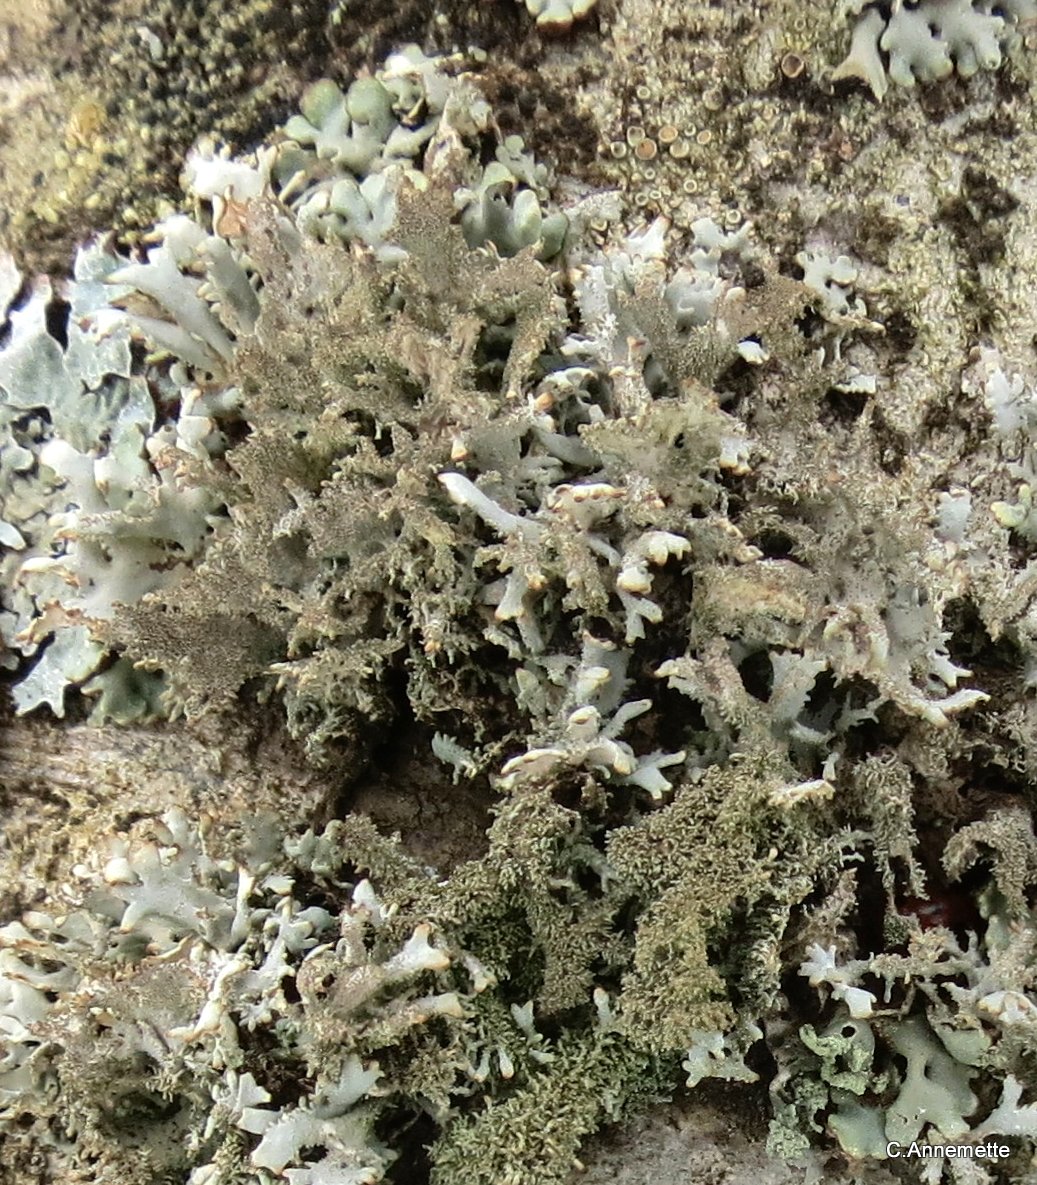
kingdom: Fungi
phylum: Ascomycota
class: Lecanoromycetes
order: Lecanorales
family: Parmeliaceae
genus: Pseudevernia
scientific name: Pseudevernia furfuracea
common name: grå fyrrelav
